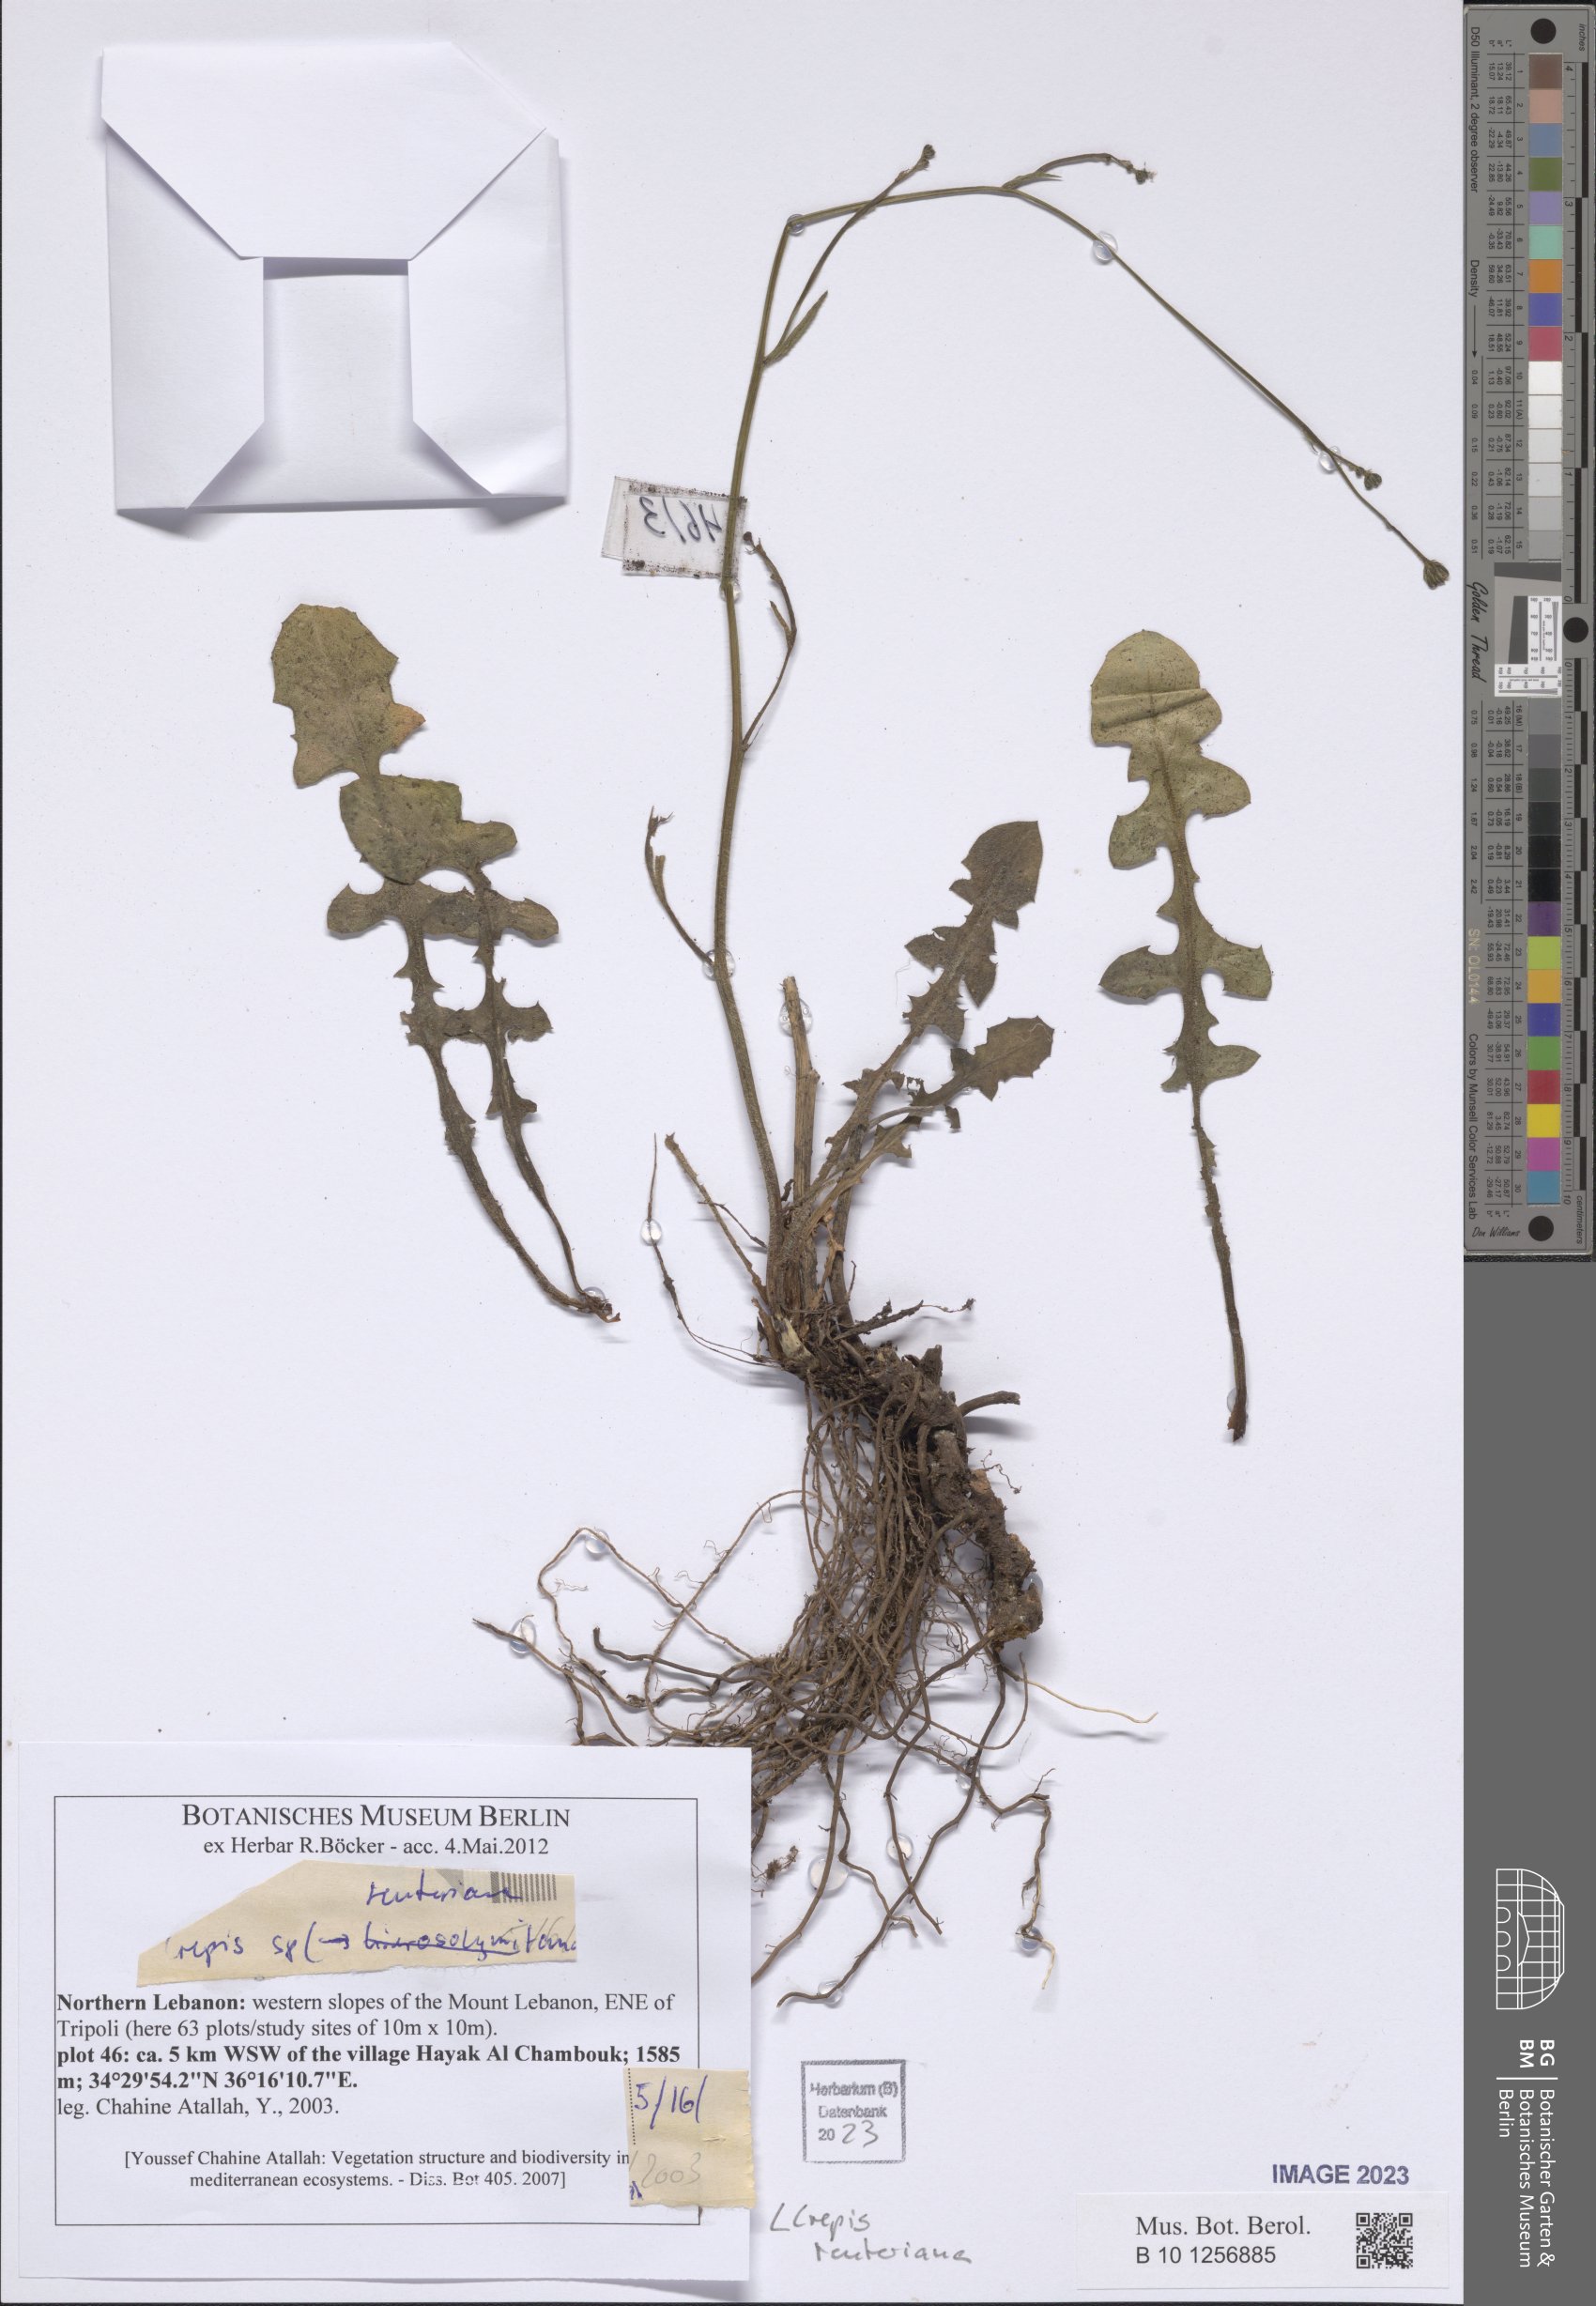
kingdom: Plantae
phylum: Tracheophyta
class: Magnoliopsida
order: Asterales
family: Asteraceae
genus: Crepis
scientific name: Crepis reuteriana
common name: Hawk's-beard
